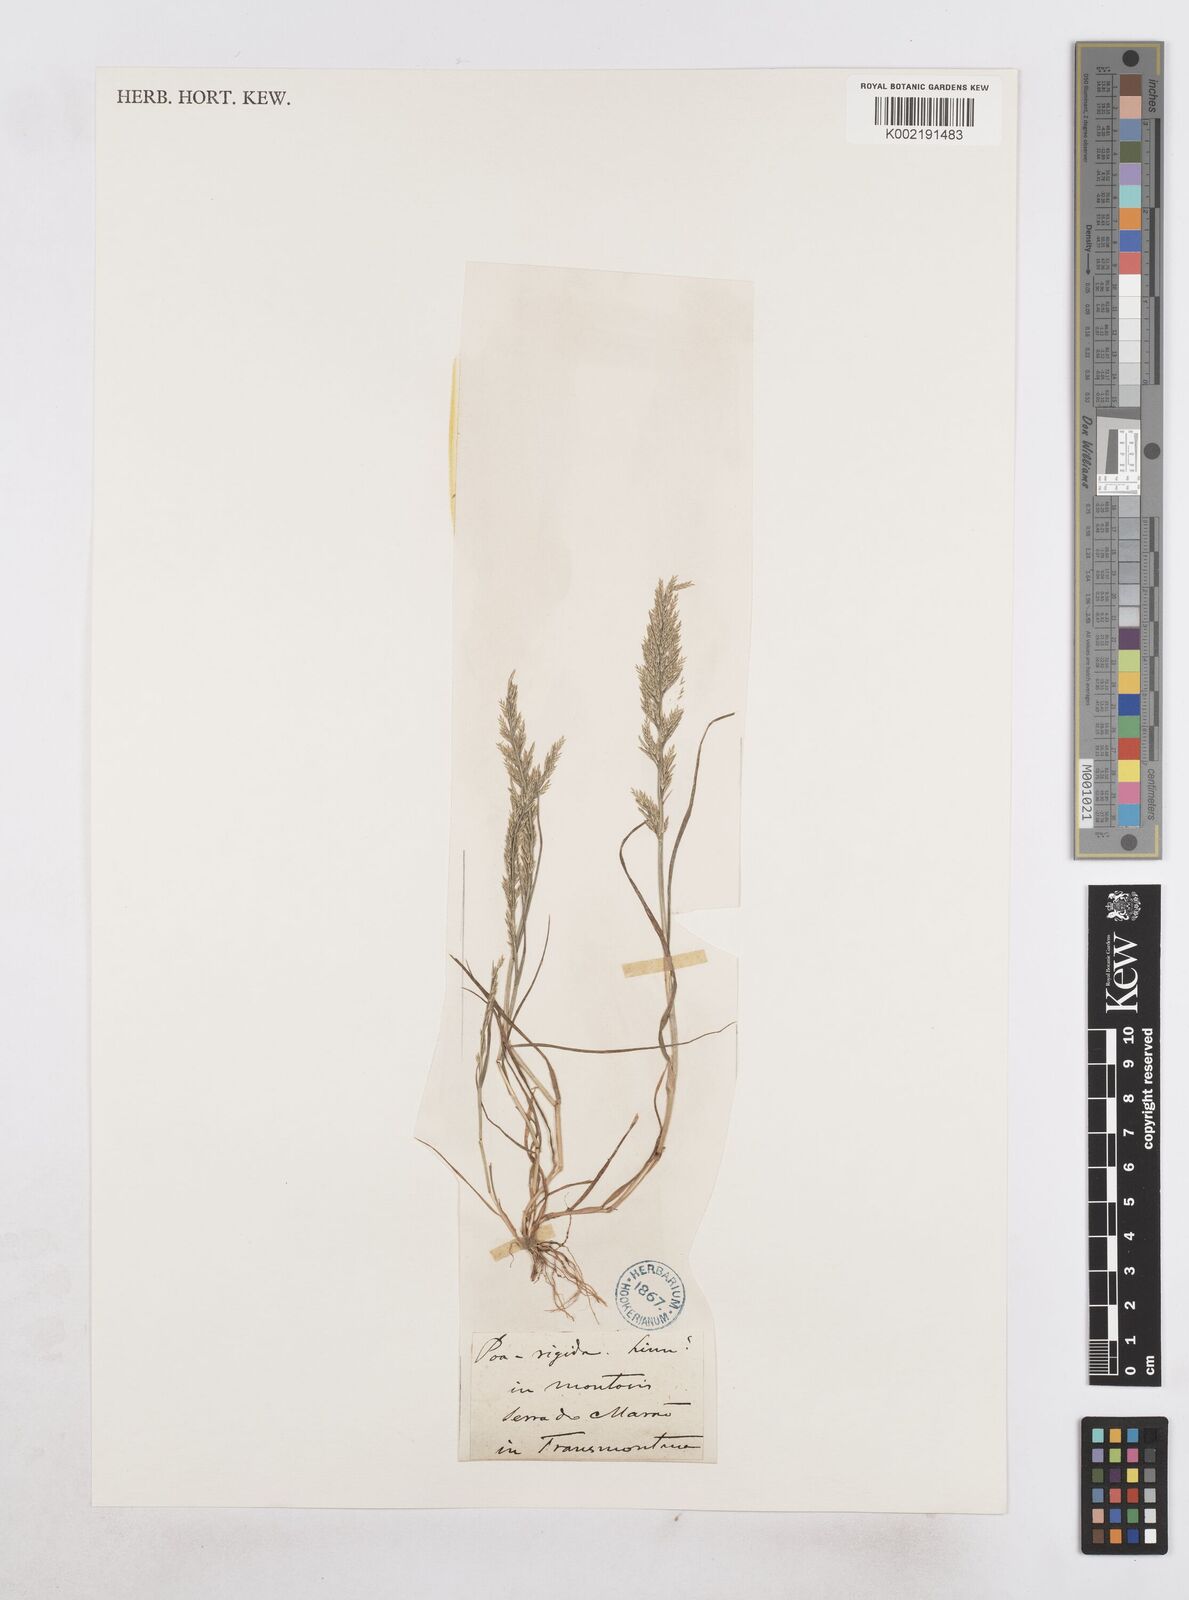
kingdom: Plantae
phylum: Tracheophyta
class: Liliopsida
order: Poales
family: Poaceae
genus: Catapodium
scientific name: Catapodium rigidum
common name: Fern-grass
